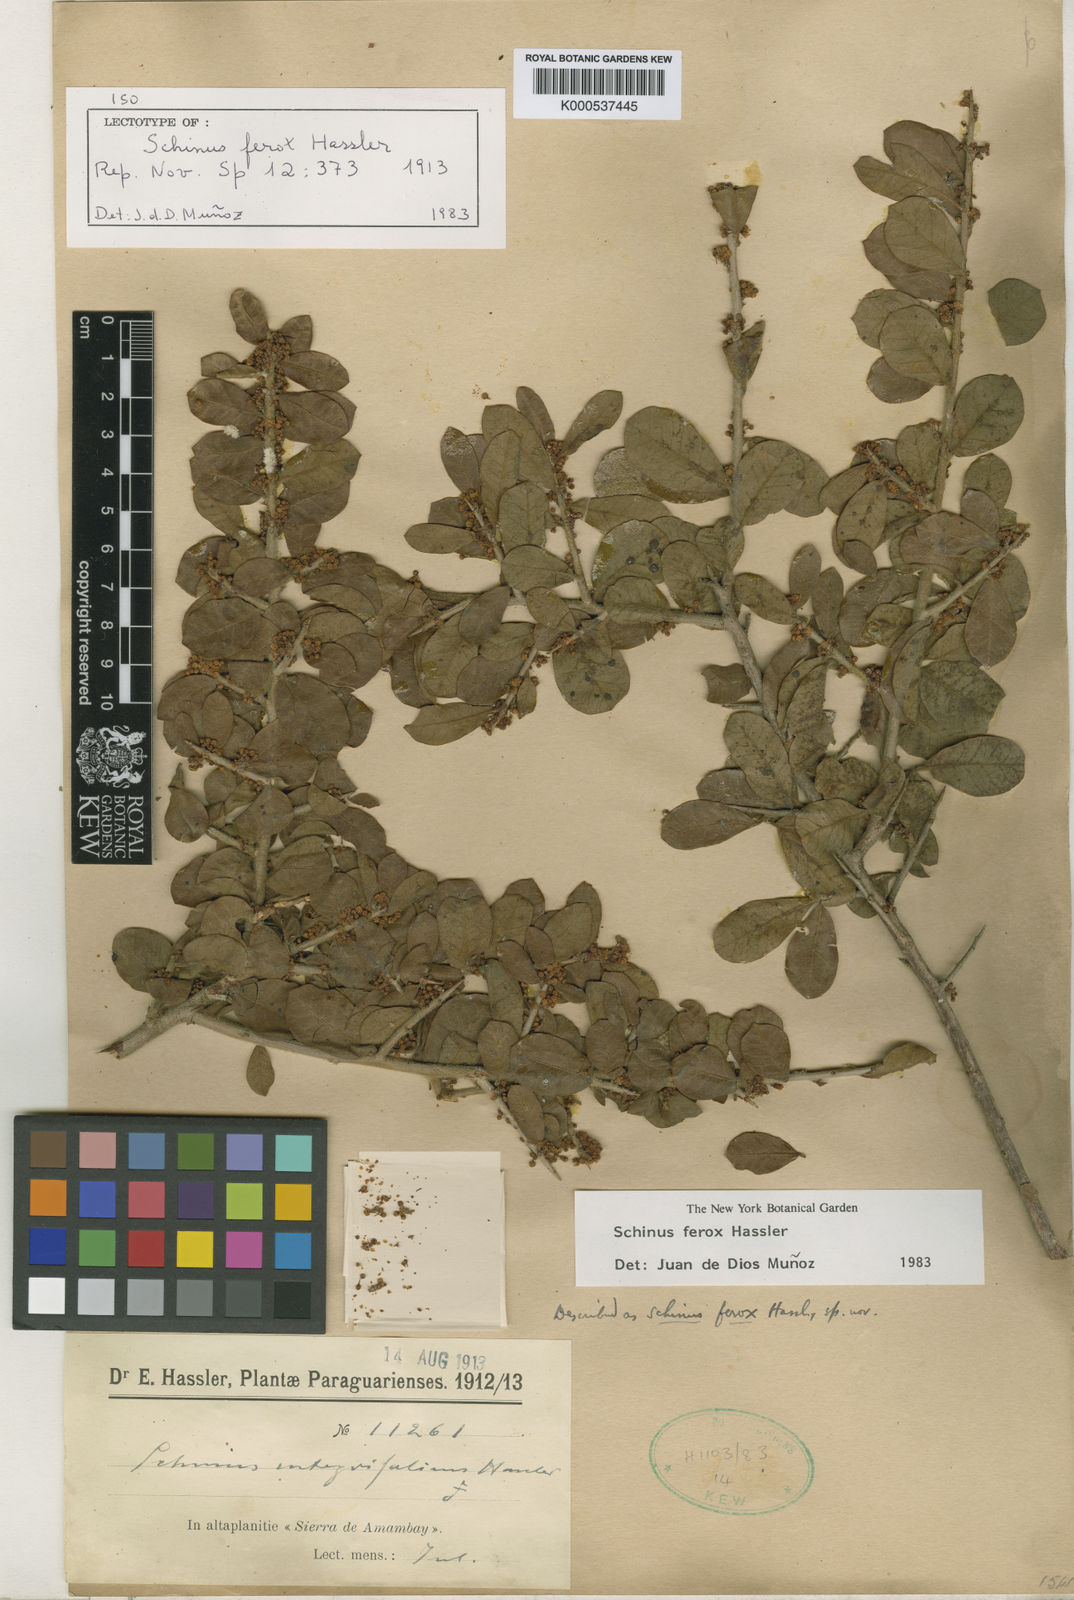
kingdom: Plantae
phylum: Tracheophyta
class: Magnoliopsida
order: Sapindales
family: Anacardiaceae
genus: Schinus
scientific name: Schinus ferox
